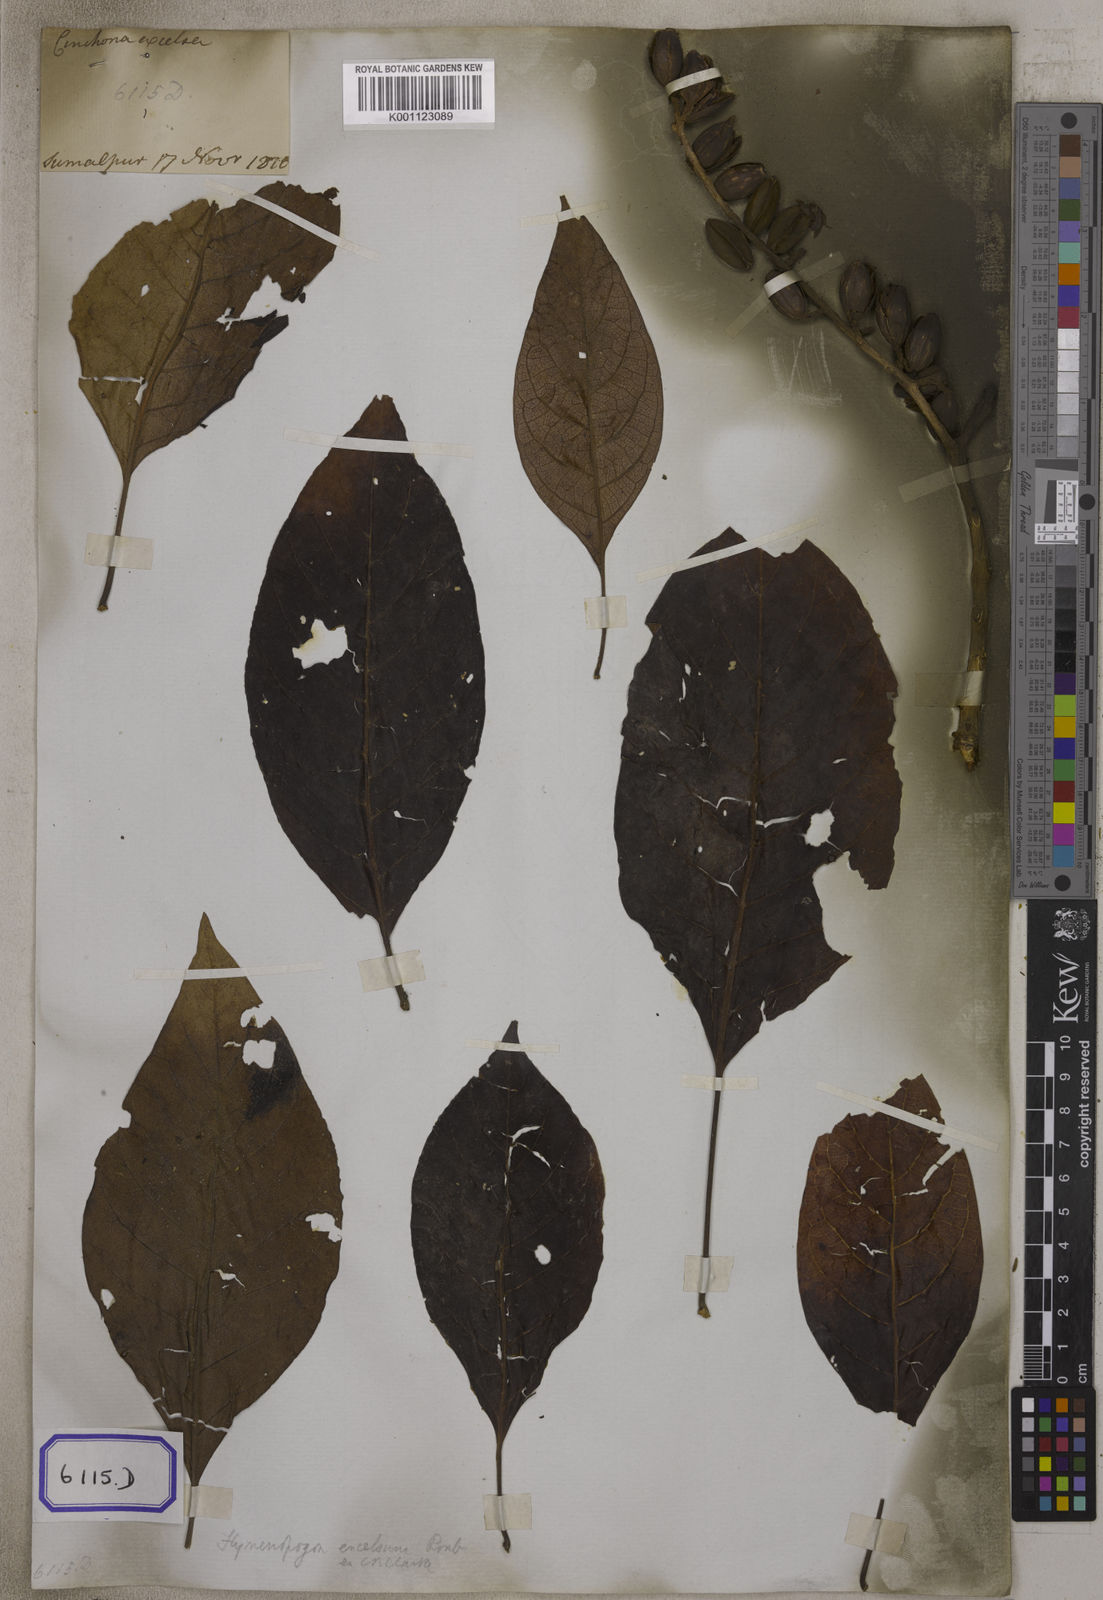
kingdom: Plantae
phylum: Tracheophyta
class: Magnoliopsida
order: Gentianales
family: Rubiaceae
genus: Hymenodictyon
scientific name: Hymenodictyon flaccidum
